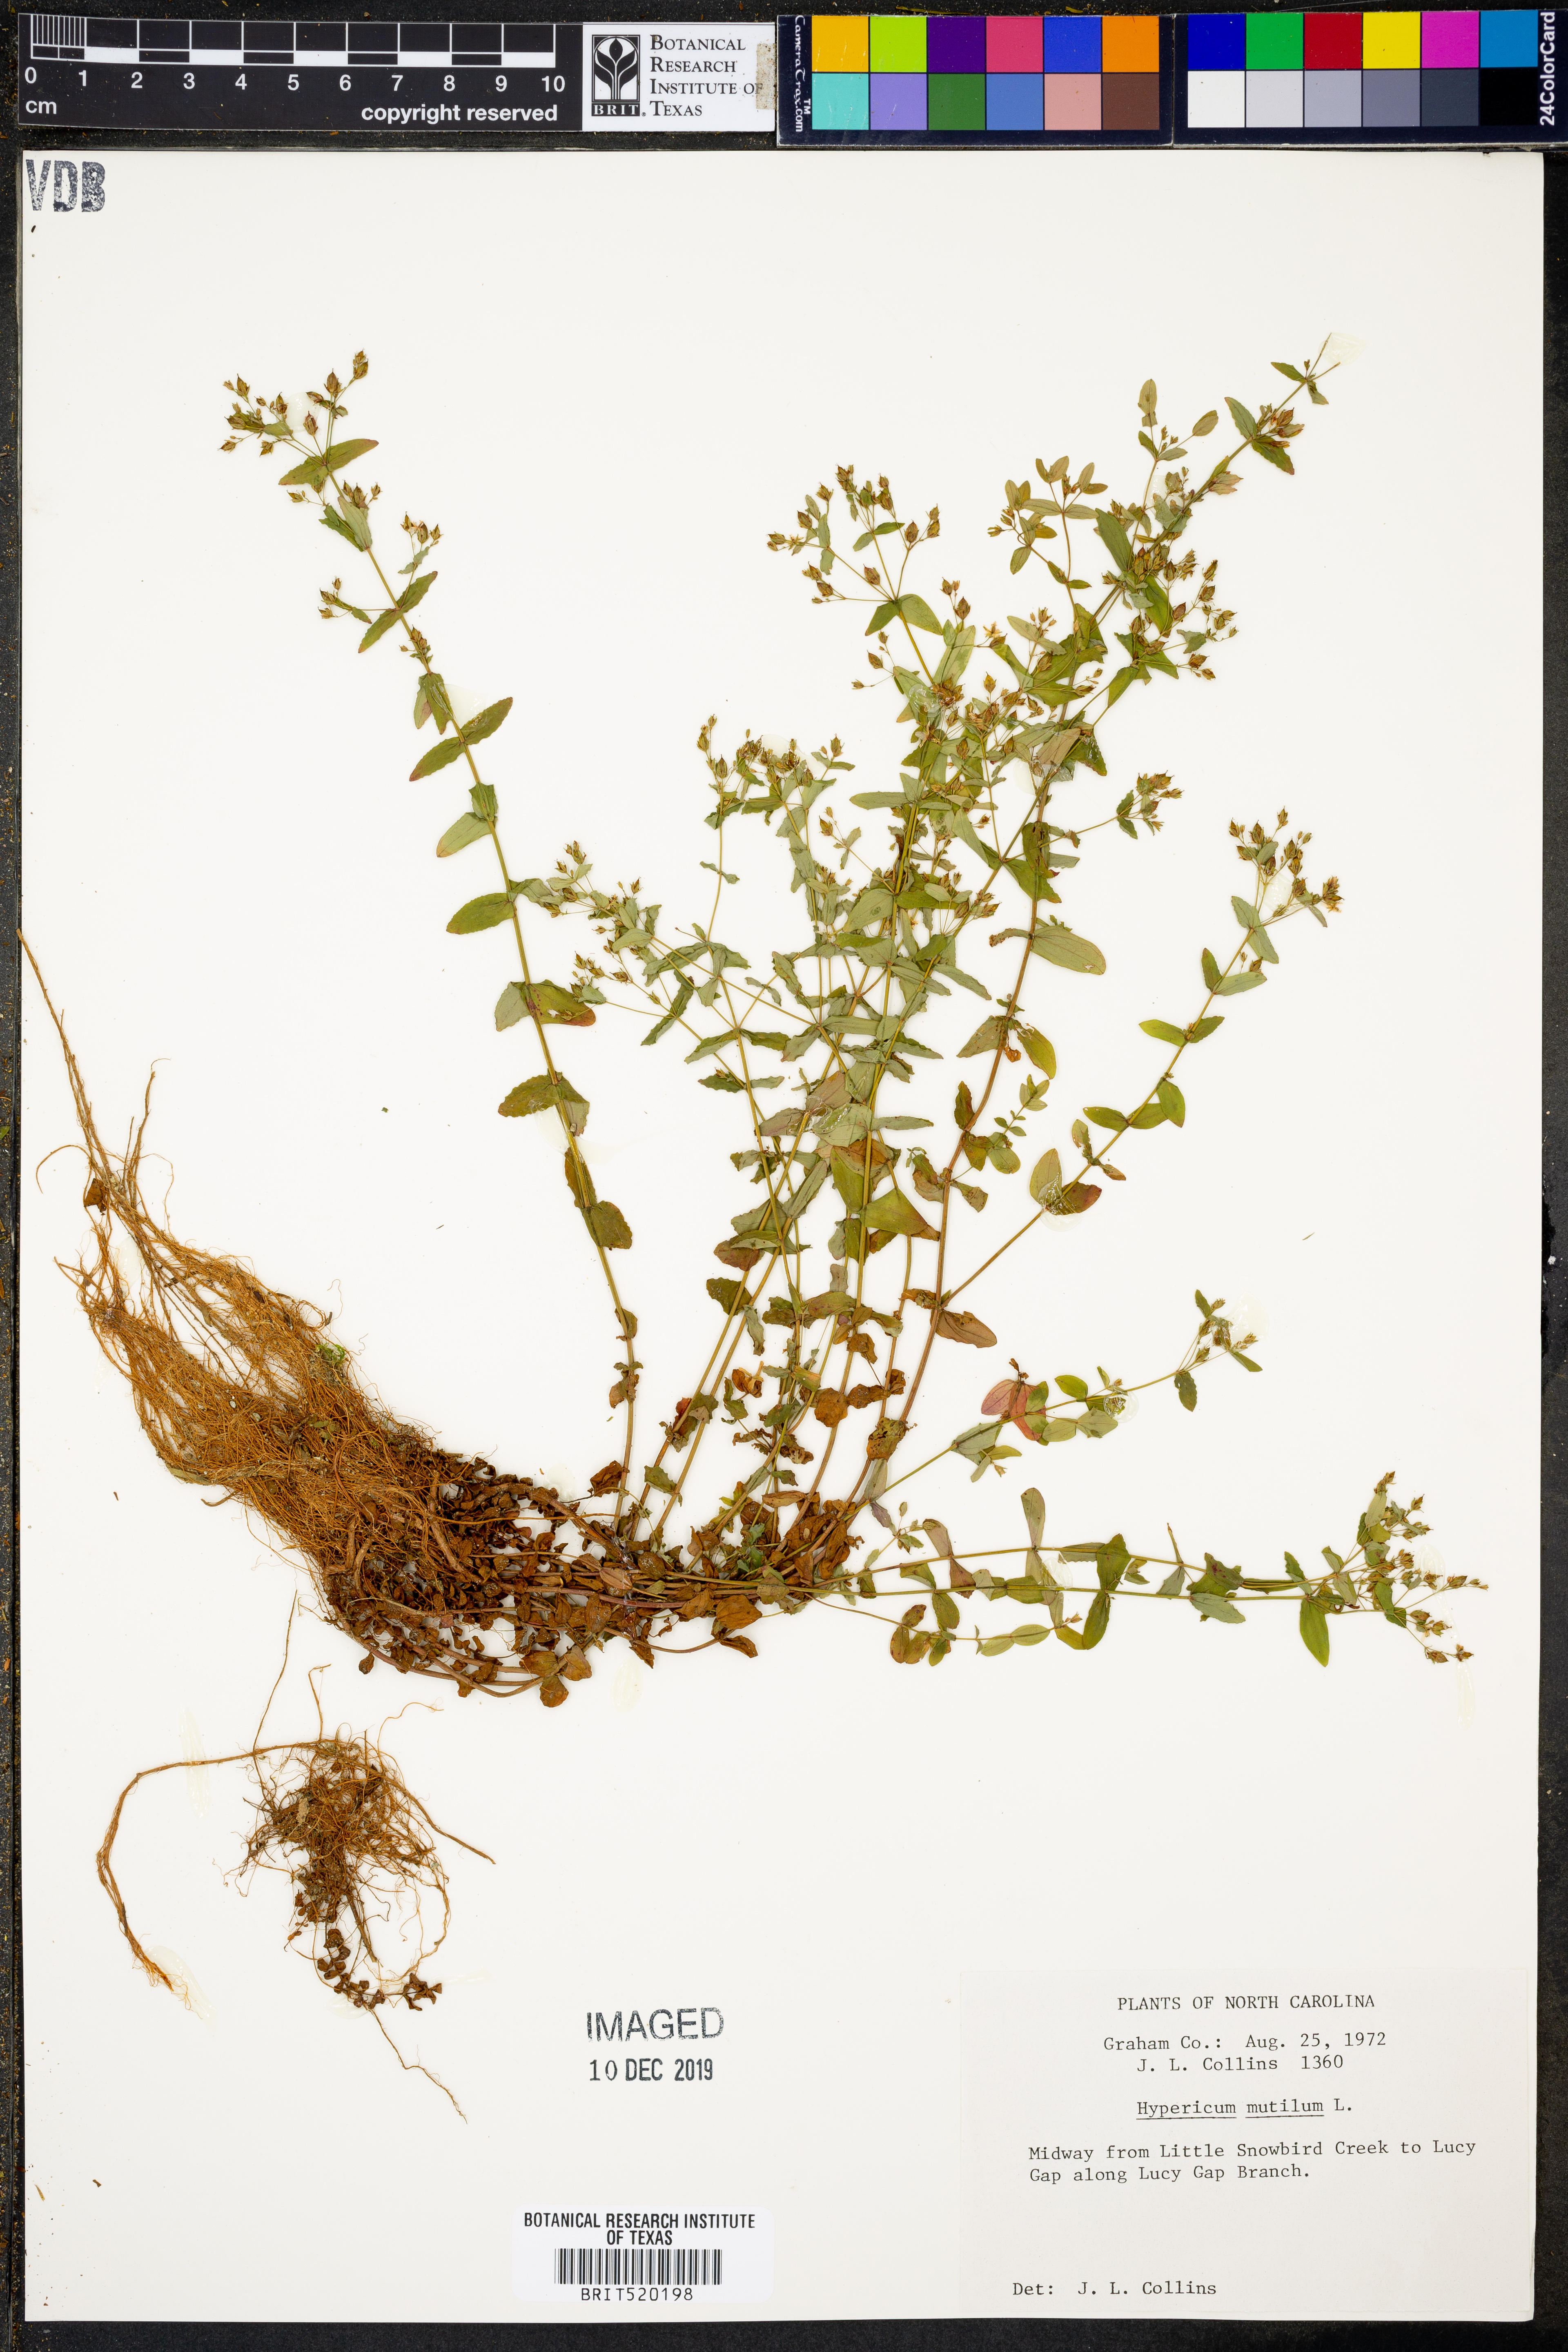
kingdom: Plantae
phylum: Tracheophyta
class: Magnoliopsida
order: Malpighiales
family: Hypericaceae
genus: Hypericum
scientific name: Hypericum mutilum
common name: Dwarf st. john's-wort
